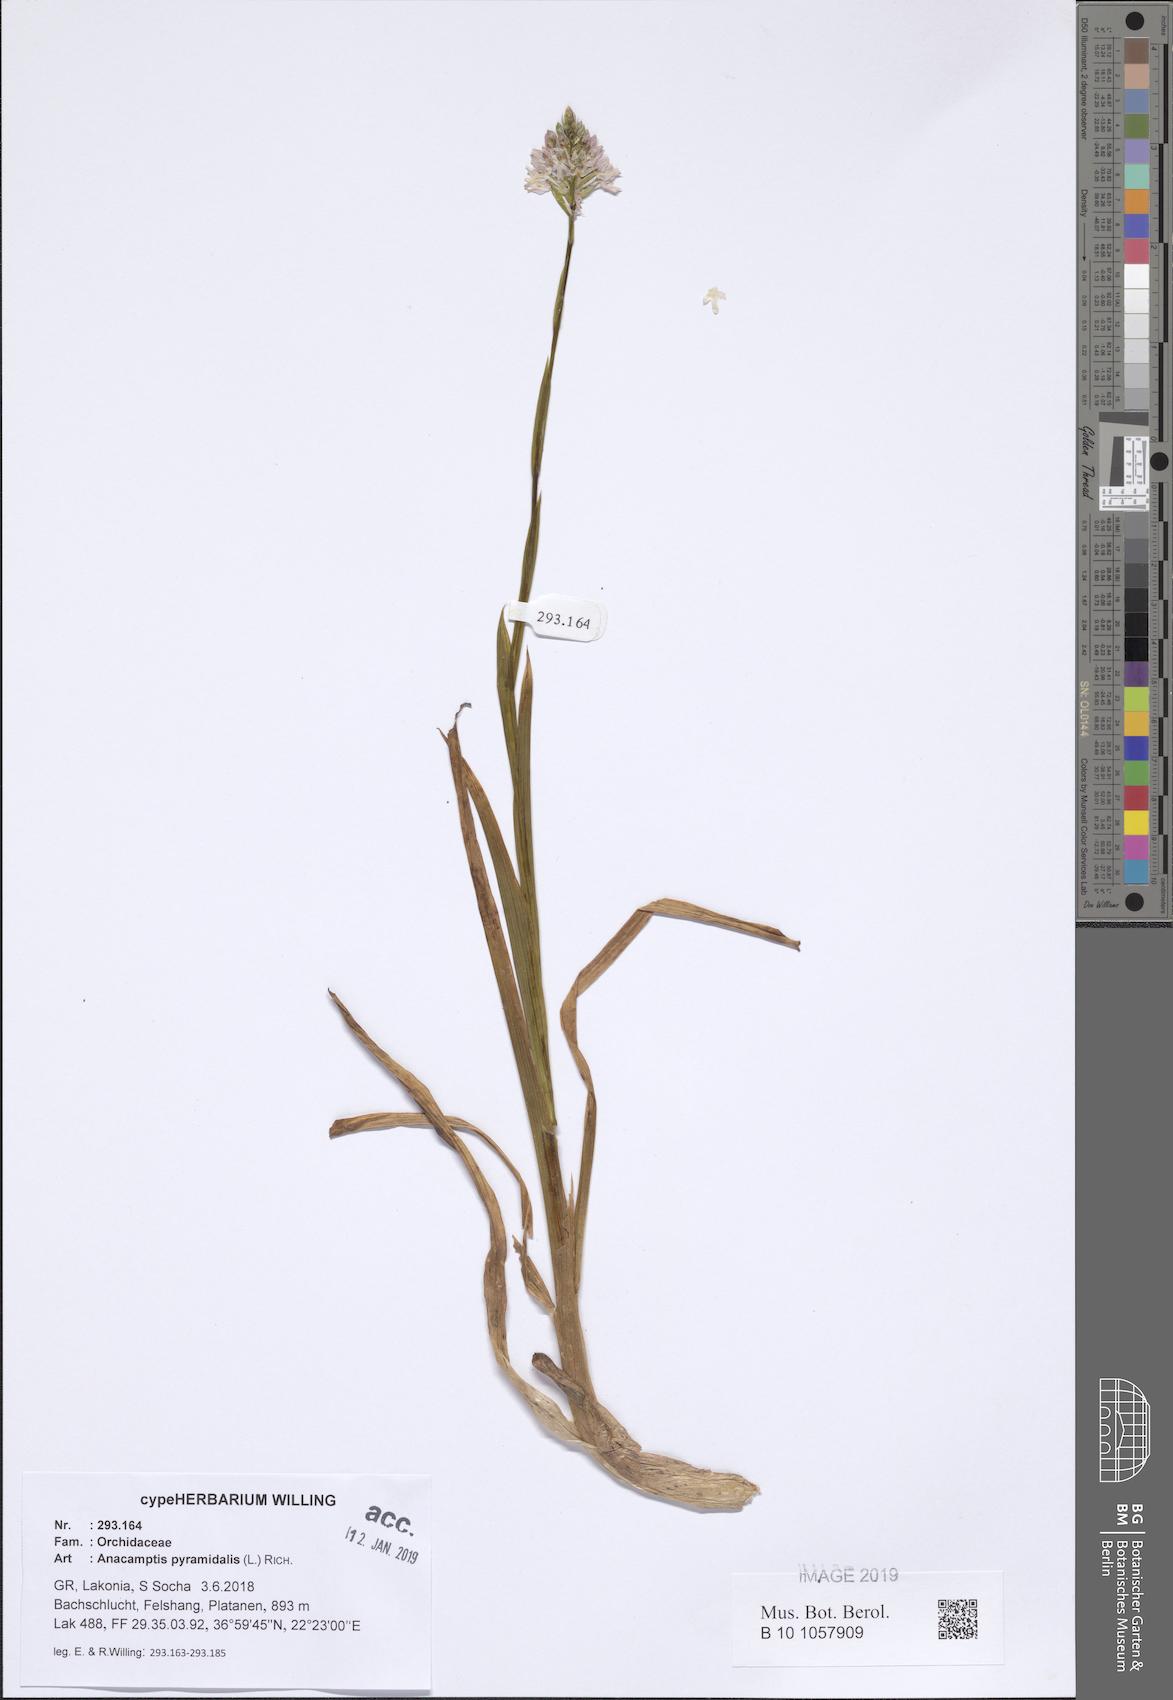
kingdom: Plantae
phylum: Tracheophyta
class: Liliopsida
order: Asparagales
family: Orchidaceae
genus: Anacamptis
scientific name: Anacamptis pyramidalis
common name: Pyramidal orchid
